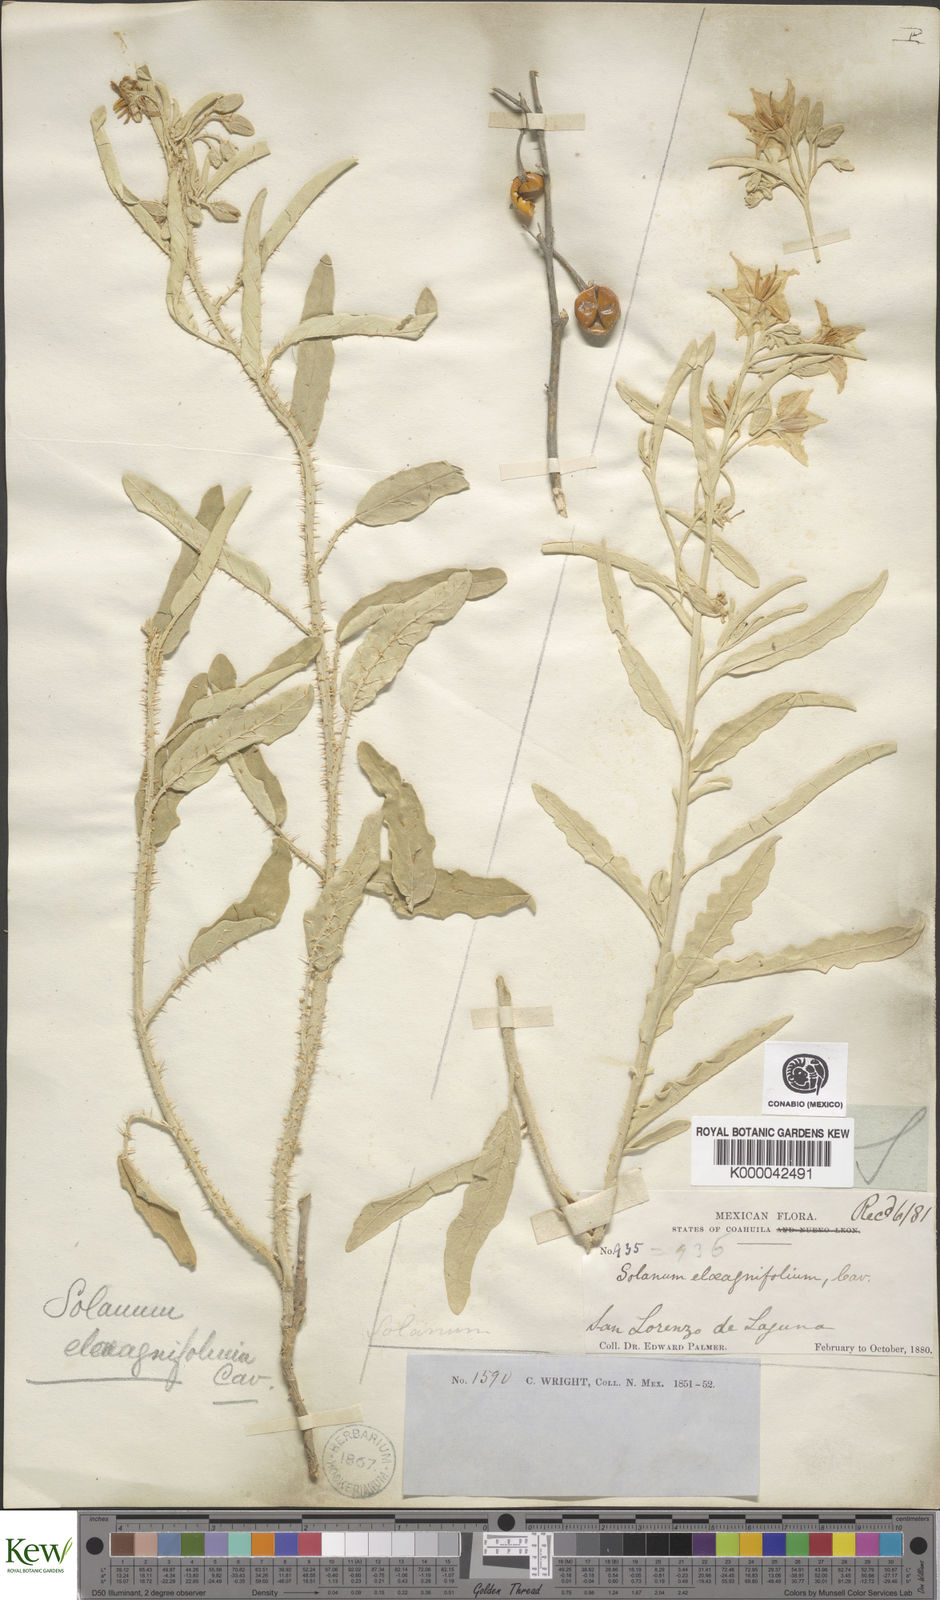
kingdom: Plantae
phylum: Tracheophyta
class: Magnoliopsida
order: Solanales
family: Solanaceae
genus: Solanum
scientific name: Solanum elaeagnifolium
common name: Silverleaf nightshade
